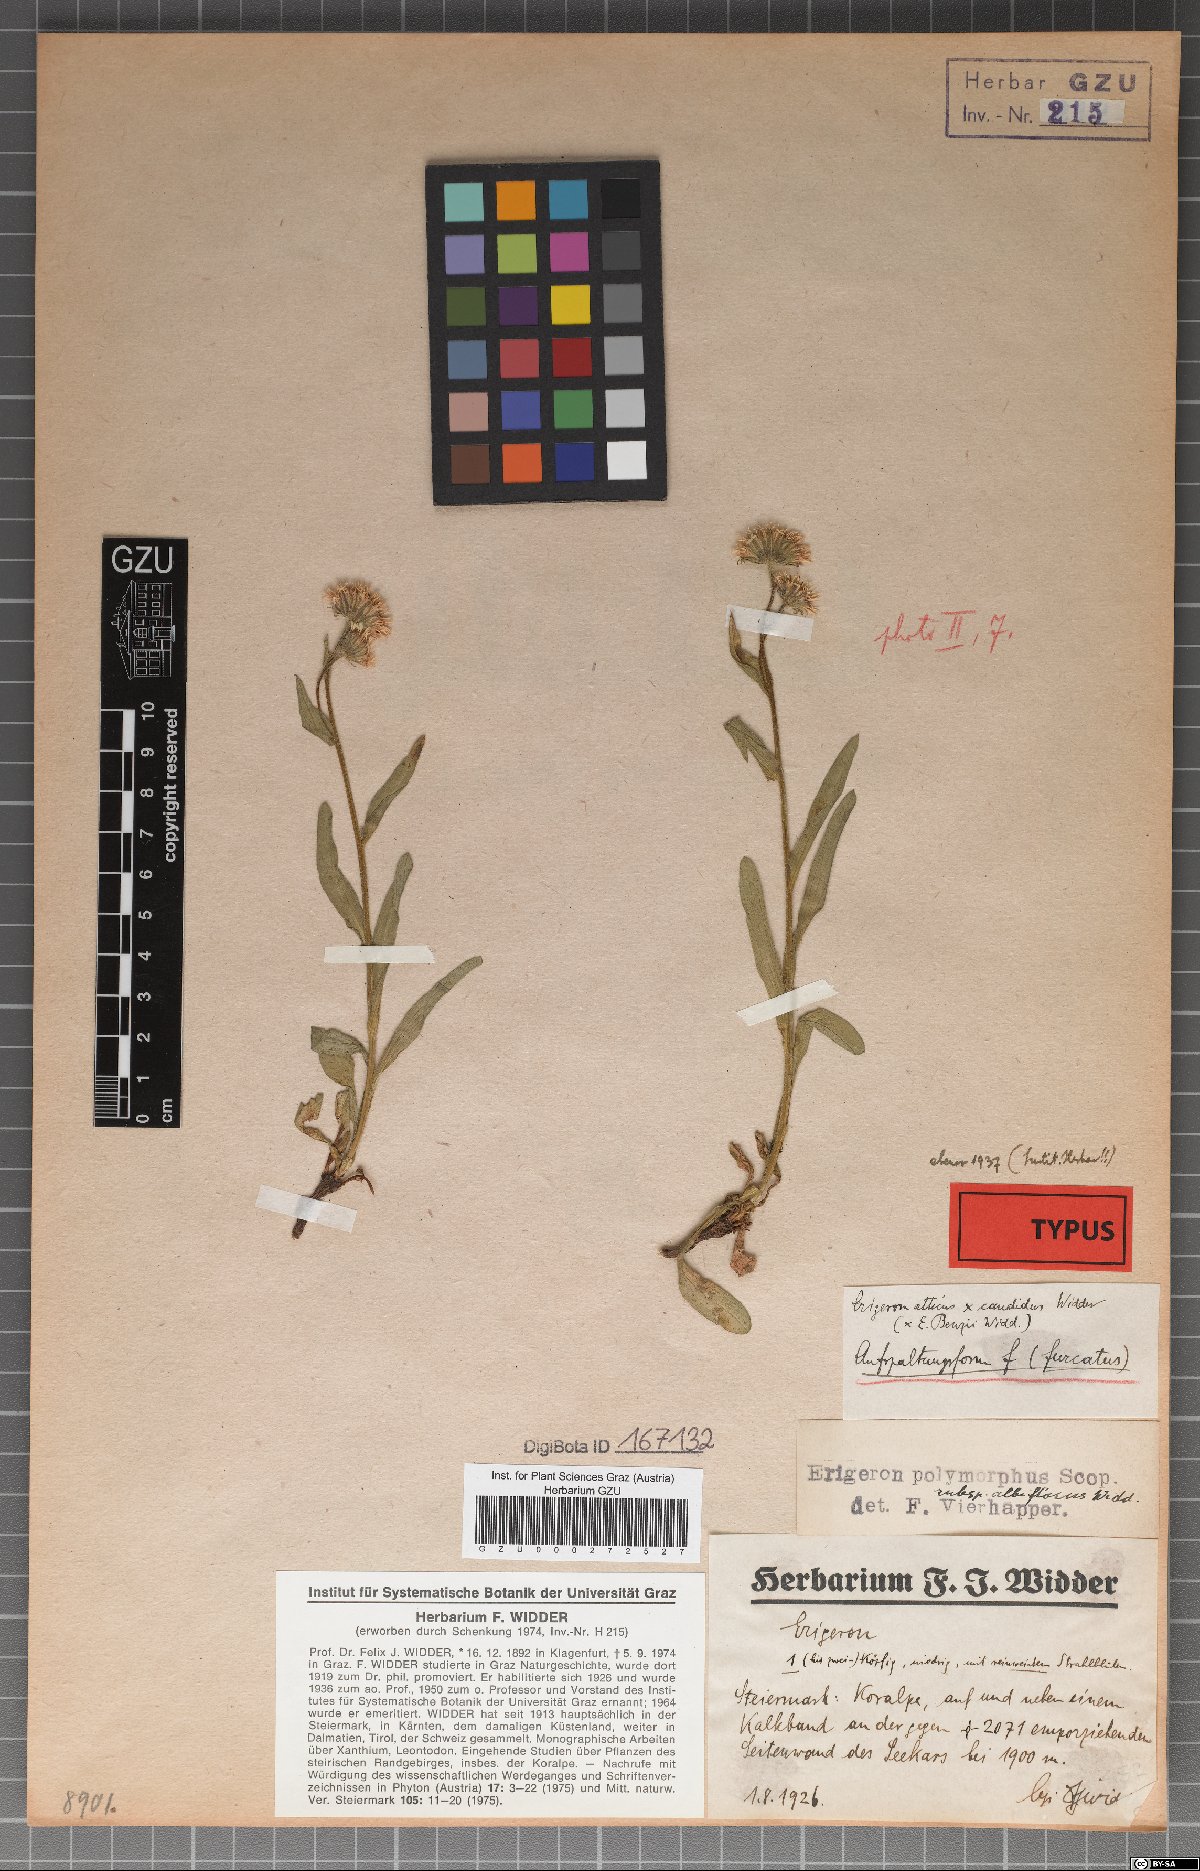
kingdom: Plantae
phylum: Tracheophyta
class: Magnoliopsida
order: Asterales
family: Asteraceae
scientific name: Asteraceae
